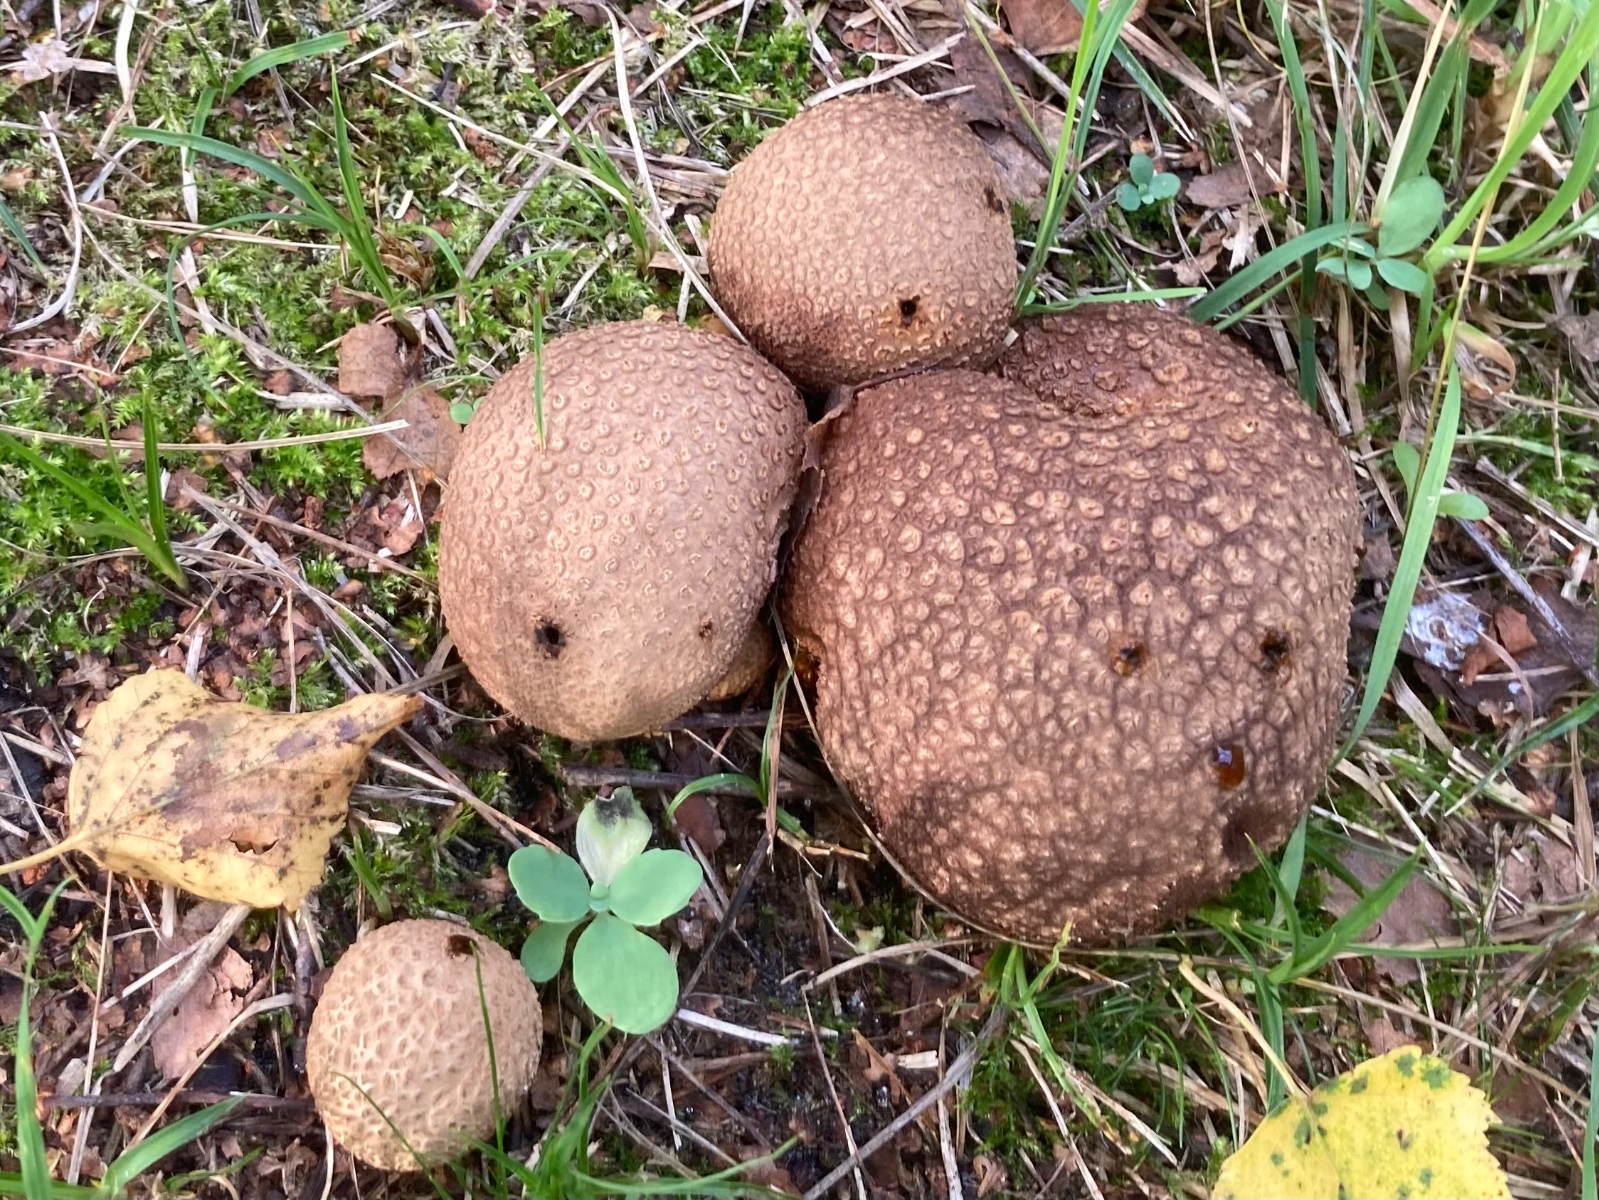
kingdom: Fungi
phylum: Basidiomycota
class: Agaricomycetes
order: Boletales
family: Sclerodermataceae
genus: Scleroderma
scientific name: Scleroderma citrinum
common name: almindelig bruskbold
